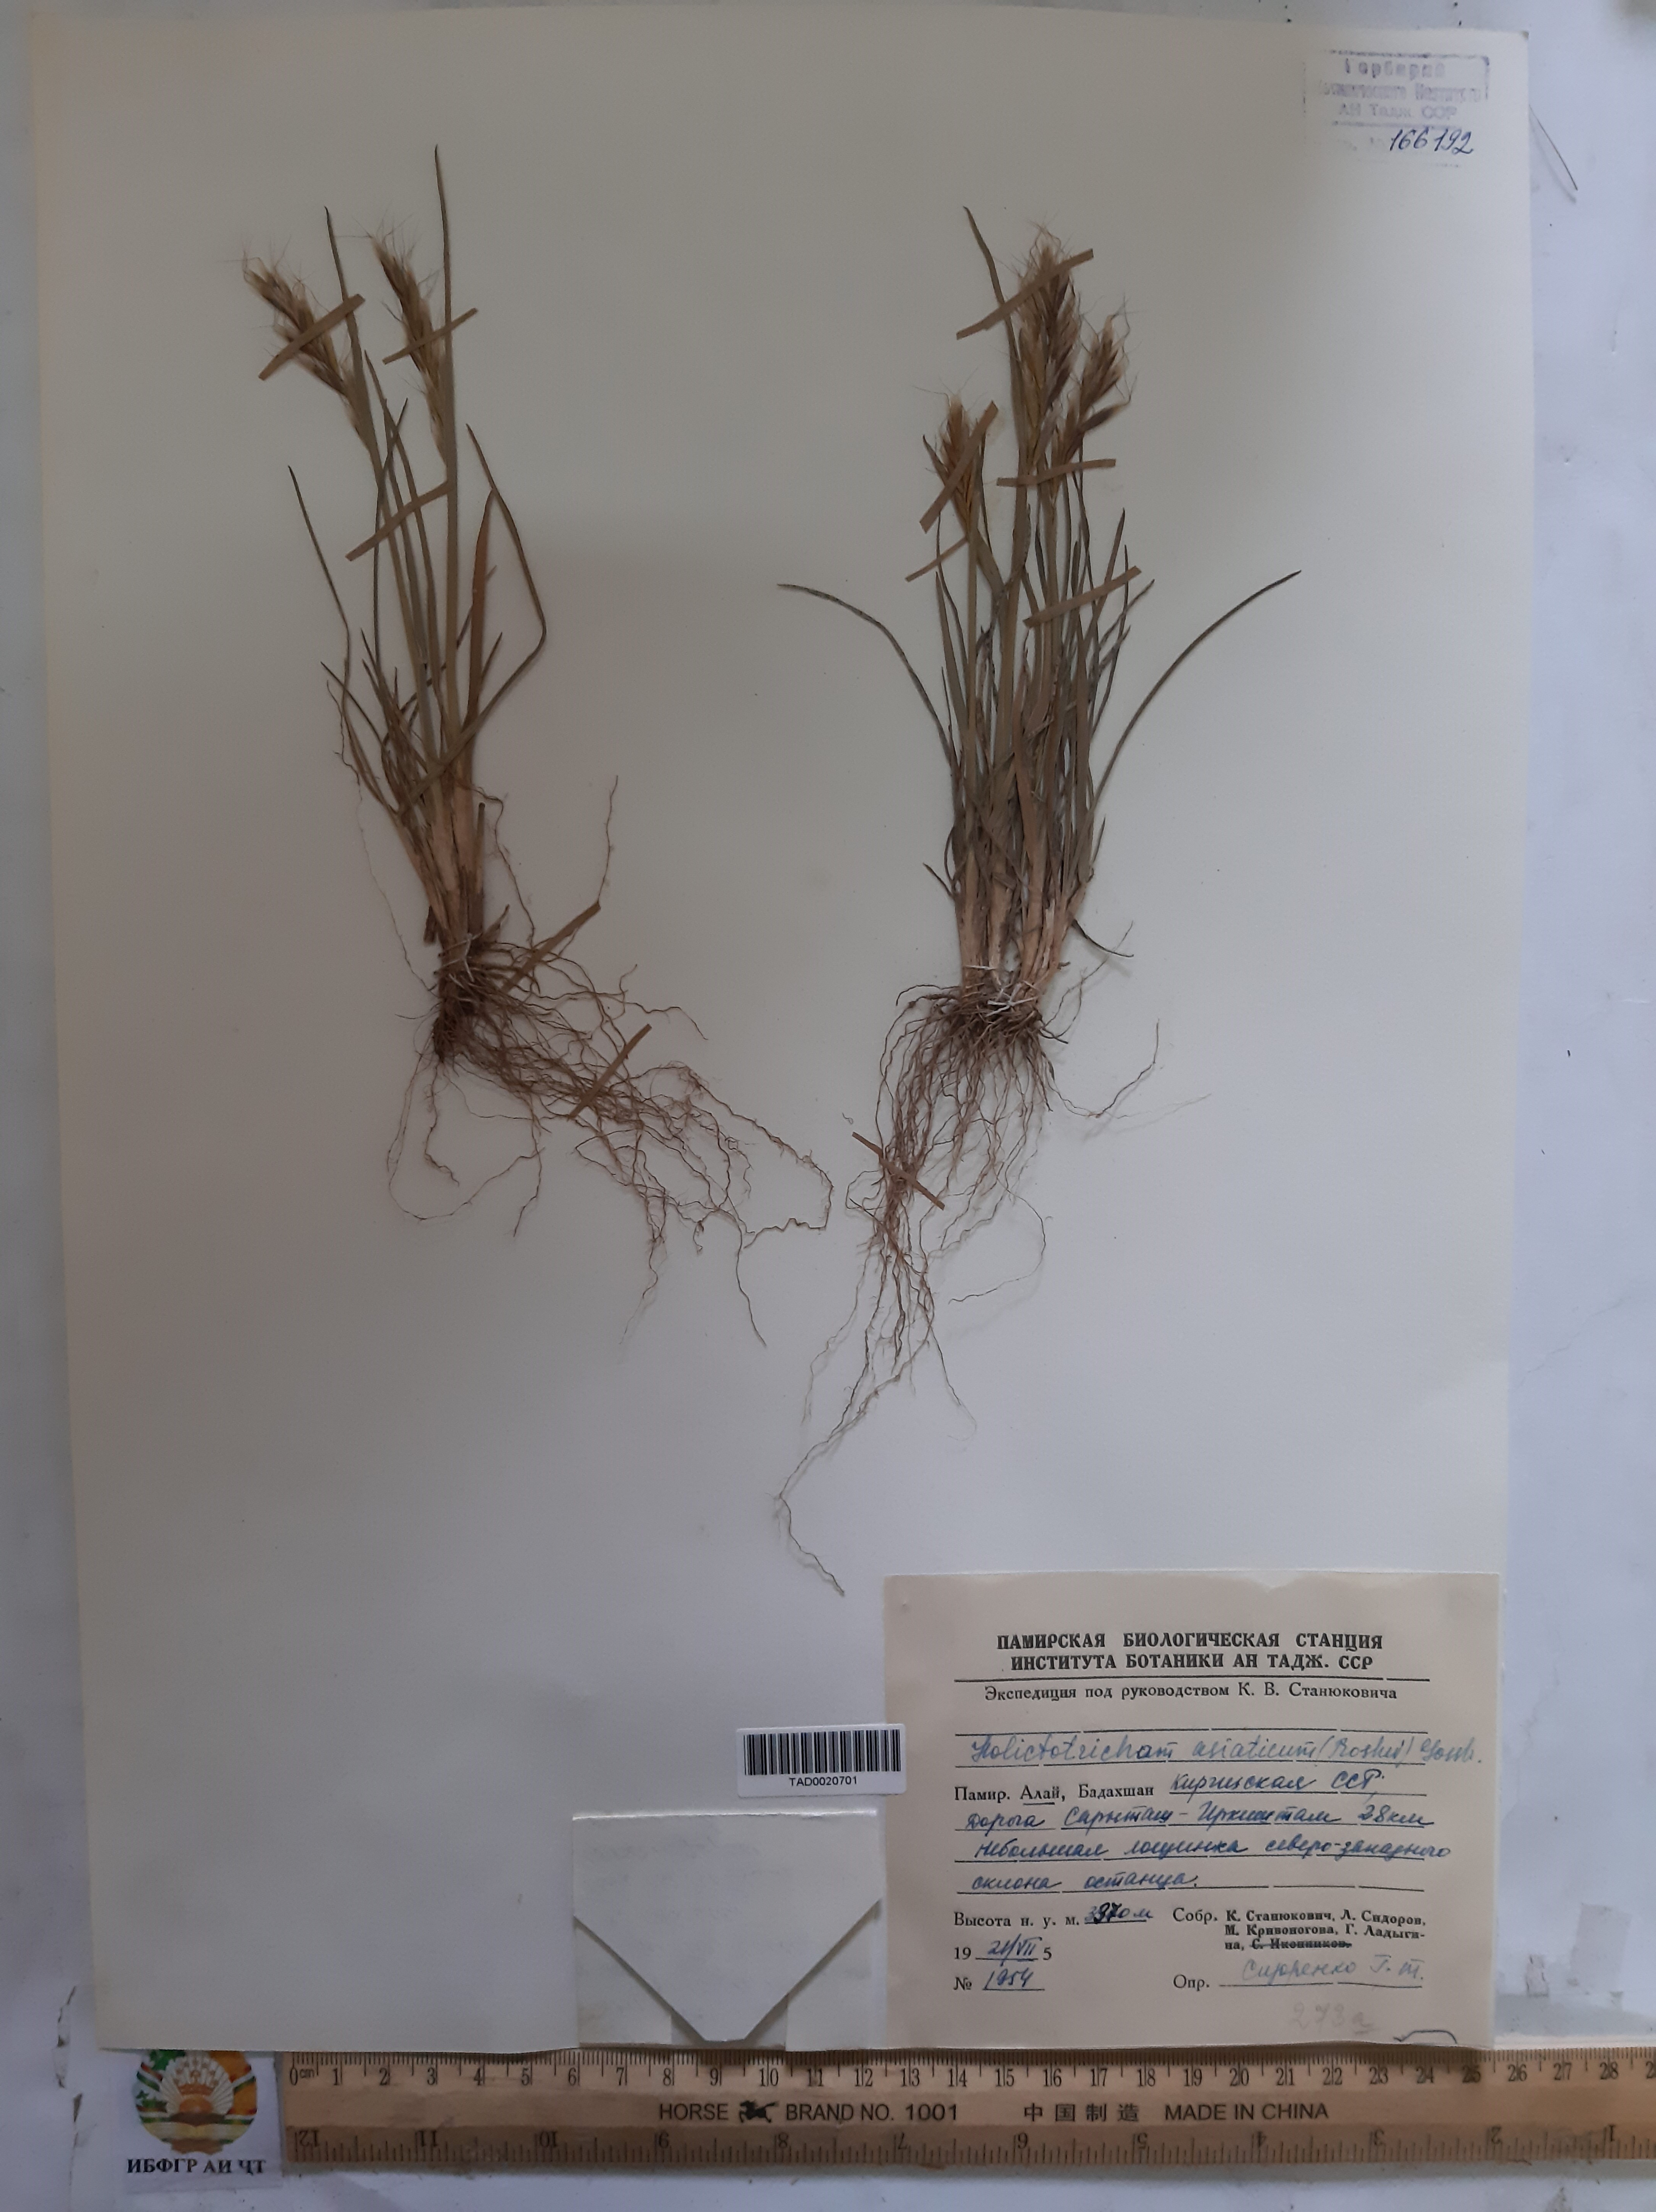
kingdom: Plantae
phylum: Tracheophyta
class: Liliopsida
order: Poales
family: Poaceae
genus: Helictochloa
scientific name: Helictochloa hookeri
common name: Hooker's alpine oatgrass
